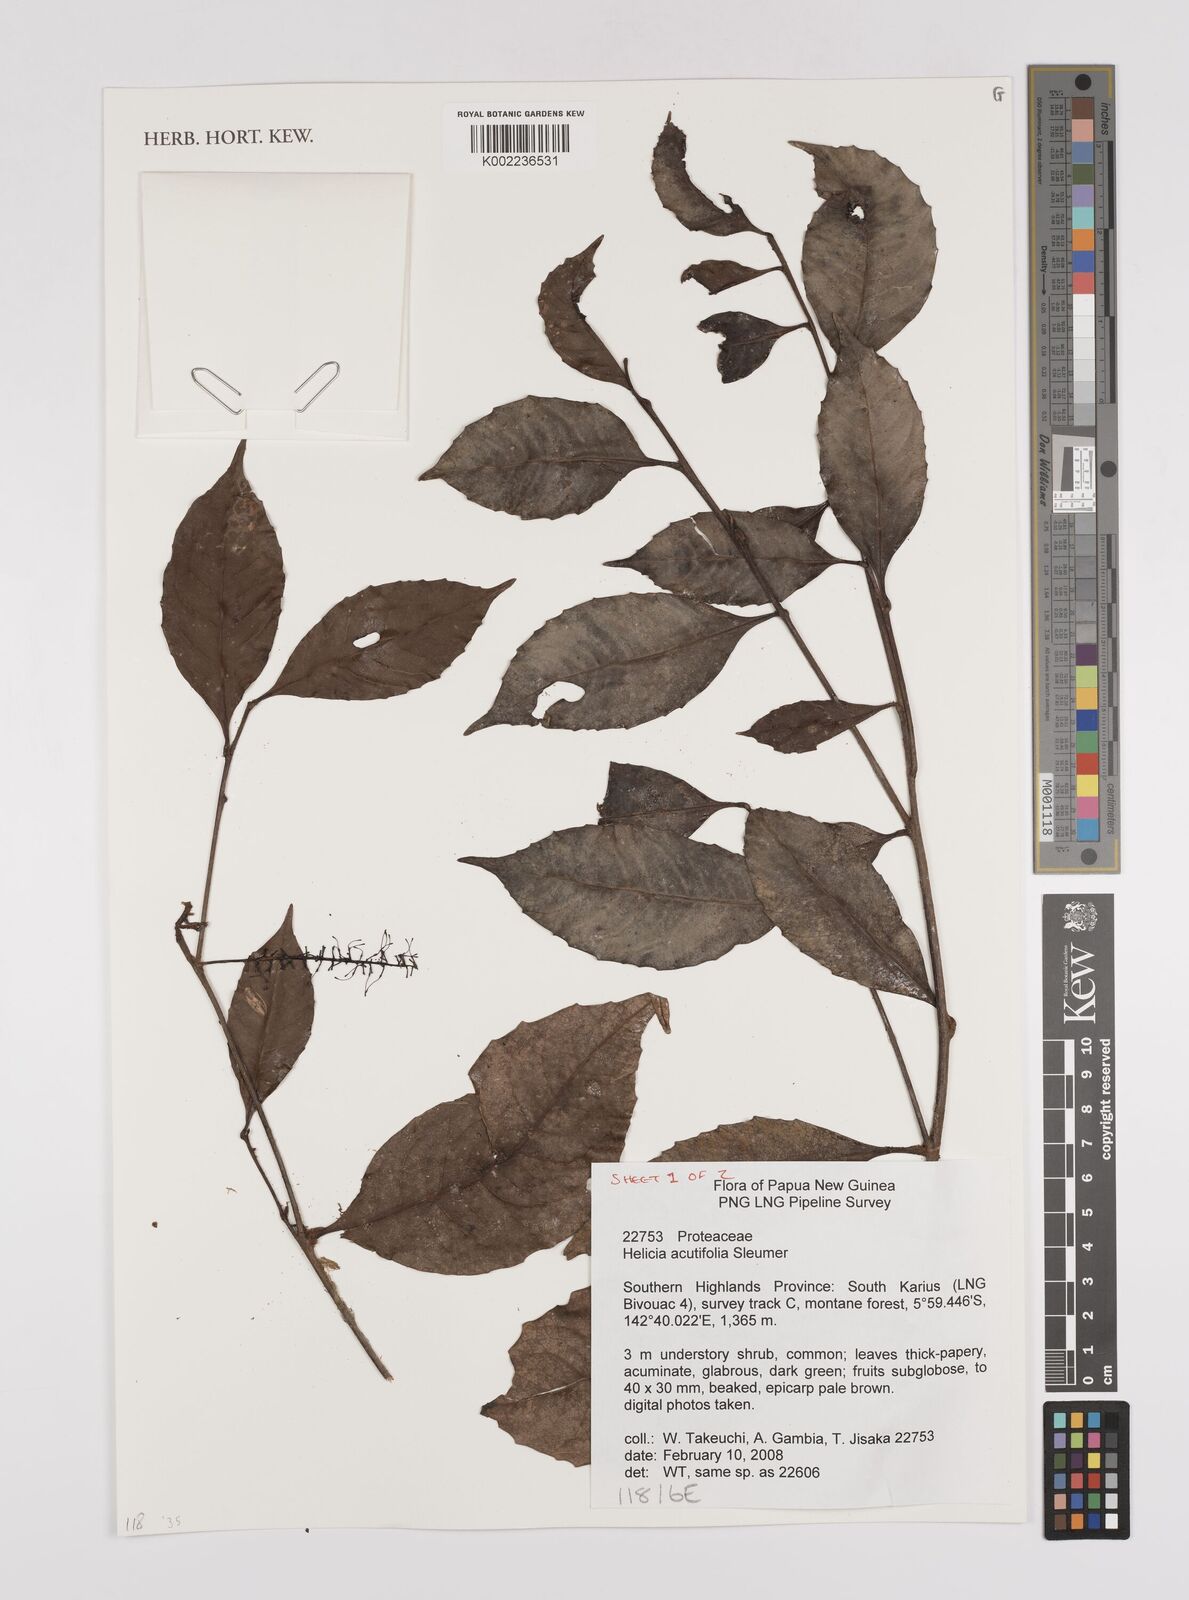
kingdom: Plantae
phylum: Tracheophyta
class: Magnoliopsida
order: Proteales
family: Proteaceae
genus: Helicia
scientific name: Helicia acutifolia
